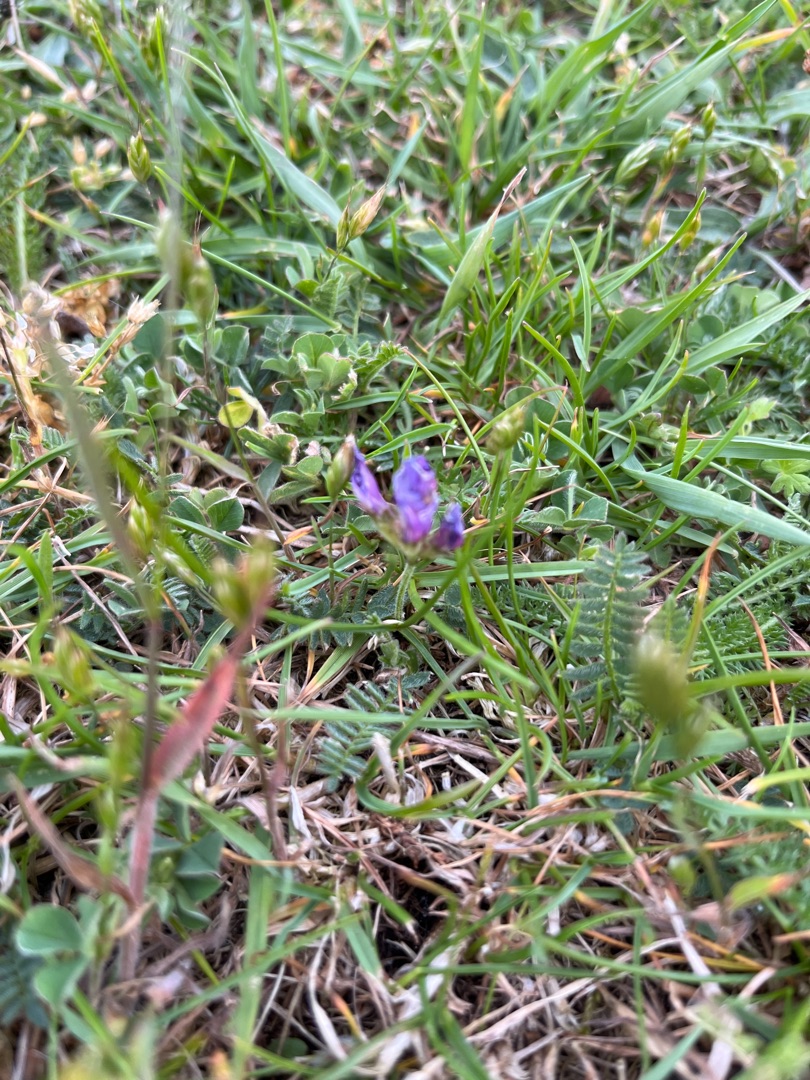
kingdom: Plantae
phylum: Tracheophyta
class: Magnoliopsida
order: Fabales
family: Fabaceae
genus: Astragalus
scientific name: Astragalus danicus
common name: Dansk astragel
